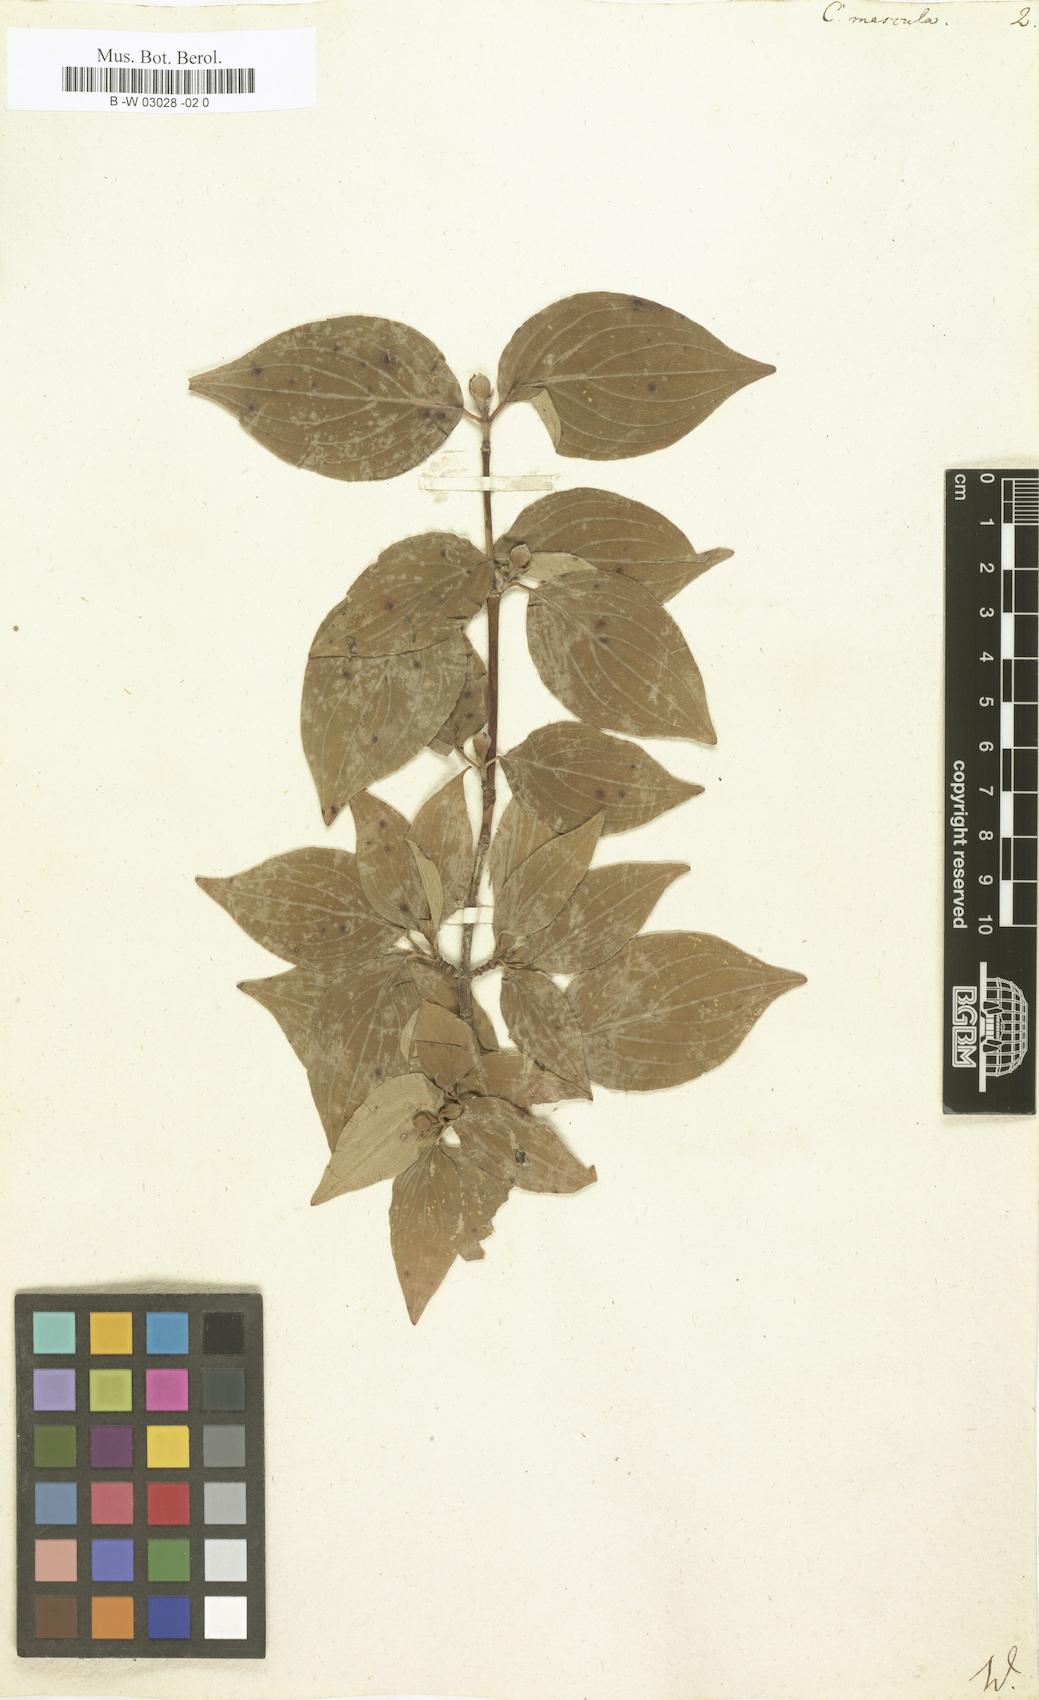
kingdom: Plantae
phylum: Tracheophyta
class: Magnoliopsida
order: Cornales
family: Cornaceae
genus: Cornus
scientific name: Cornus mas
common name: Cornelian-cherry
